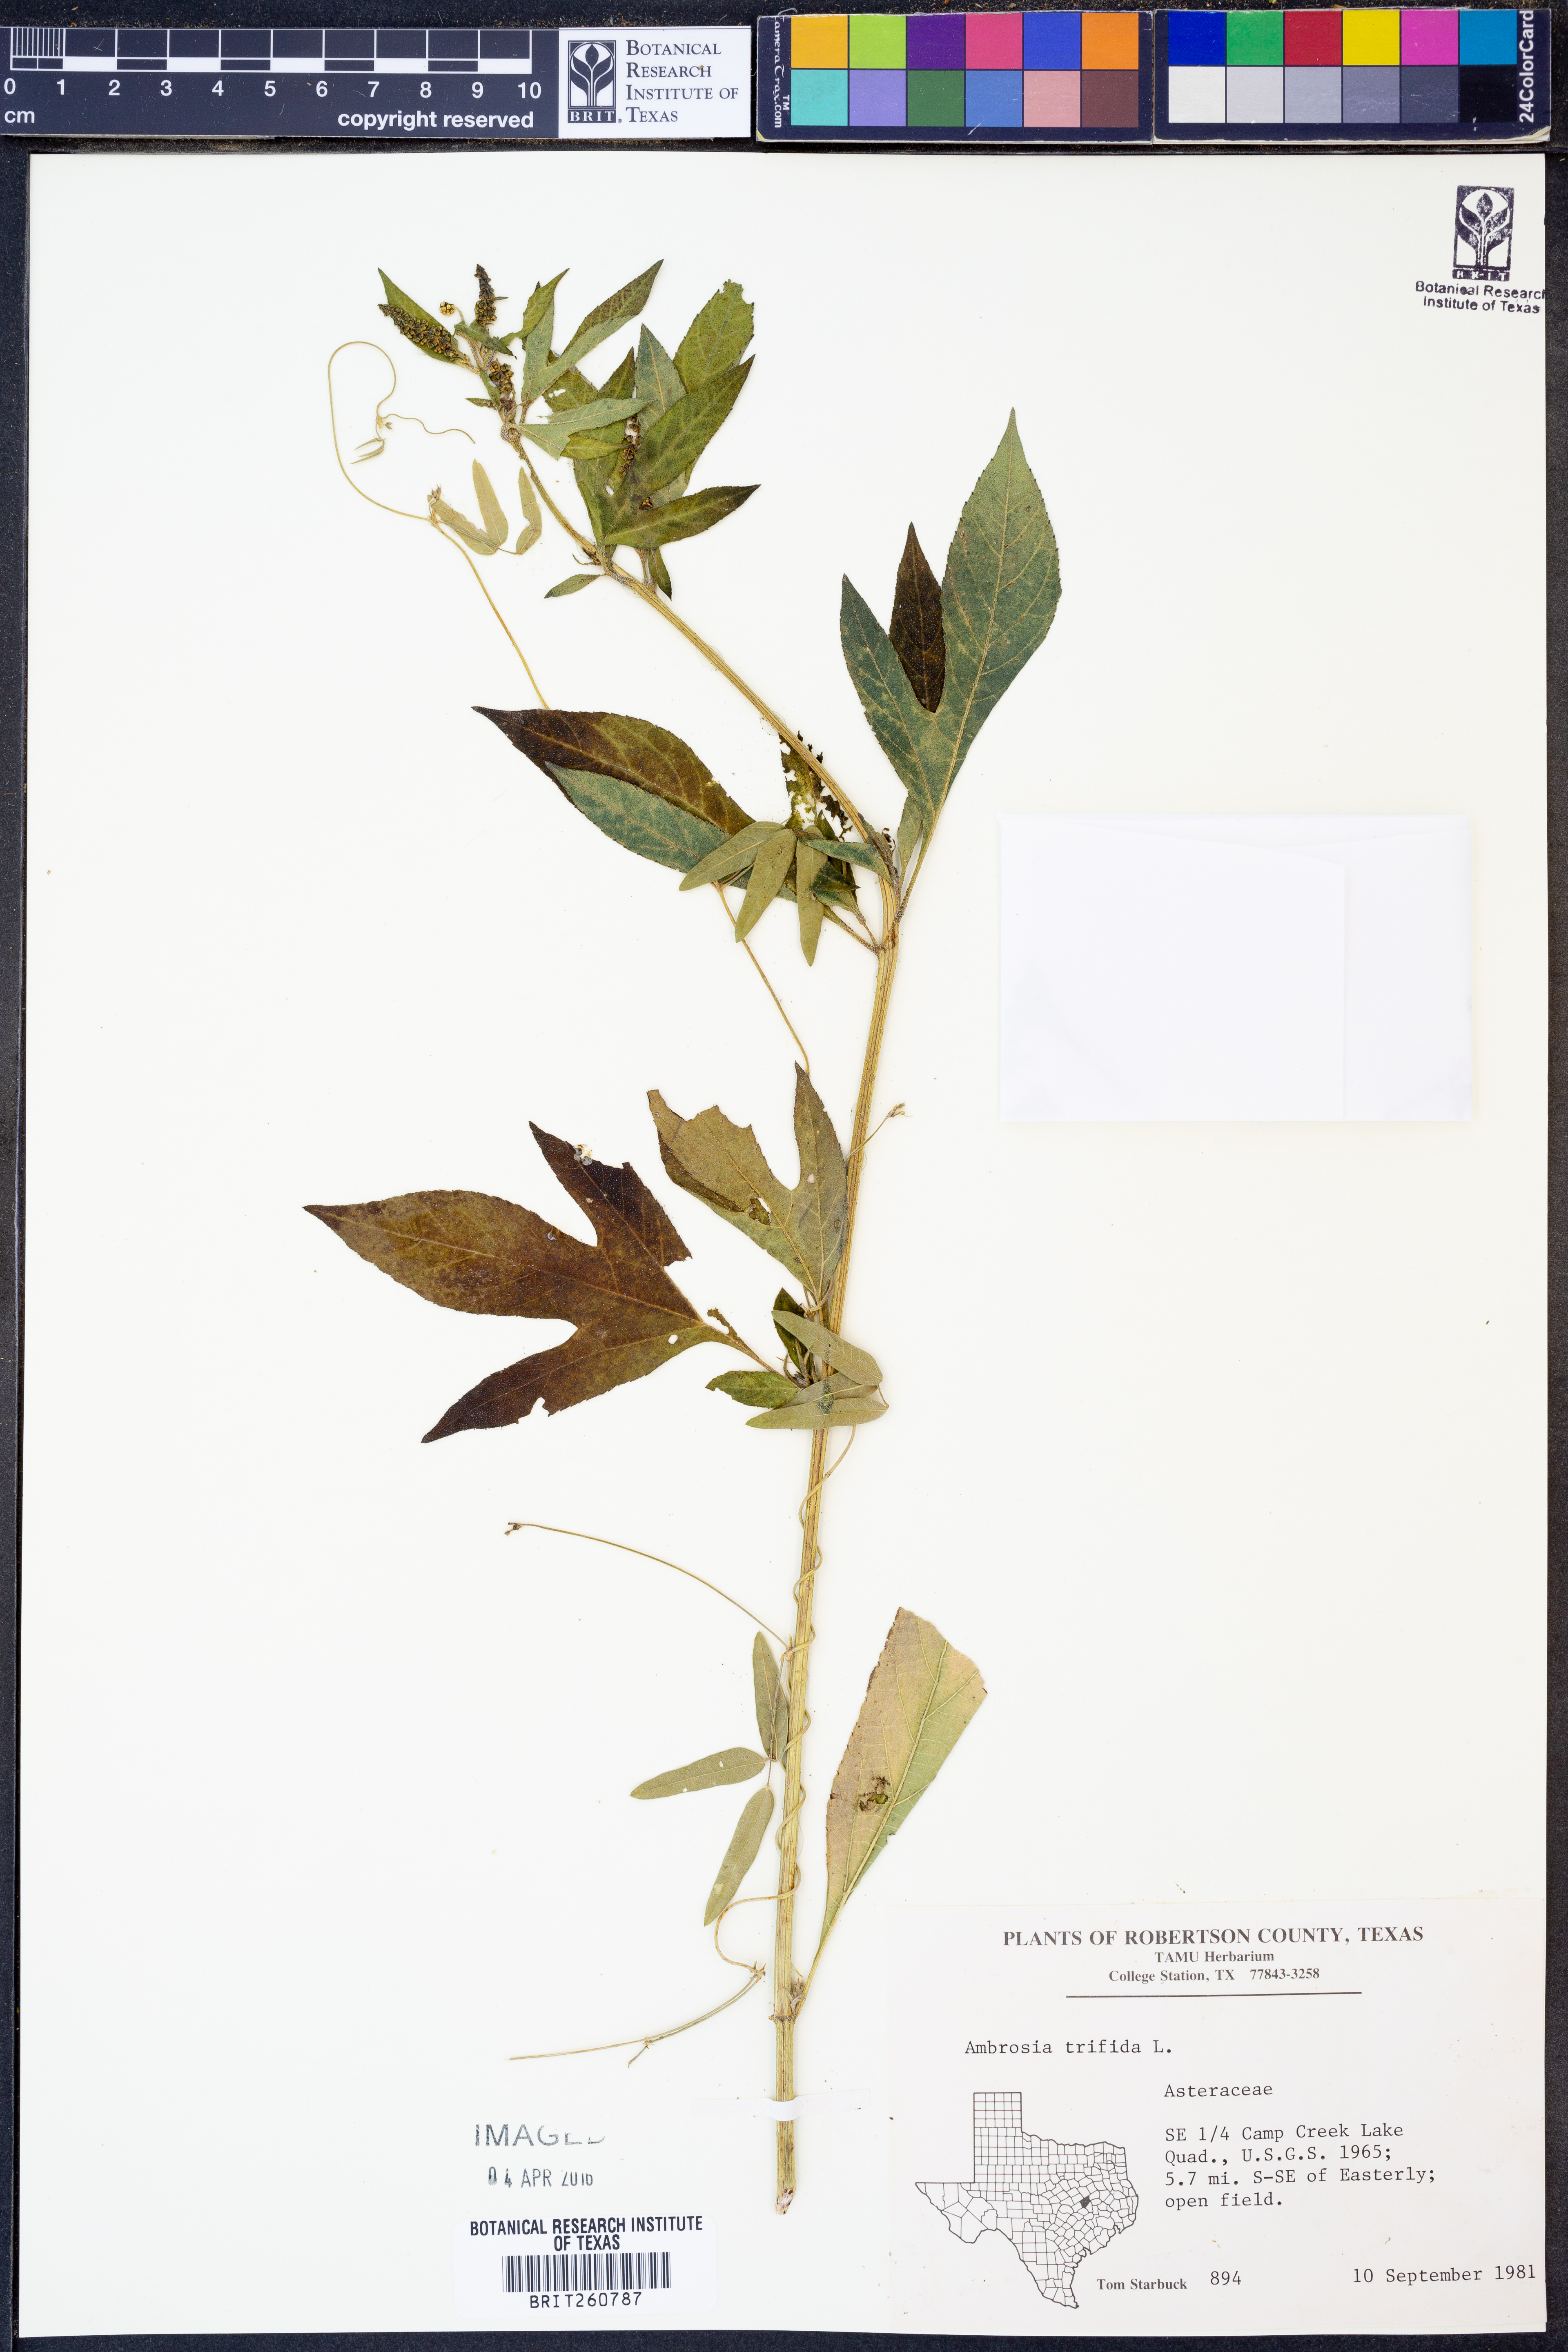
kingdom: Plantae
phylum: Tracheophyta
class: Magnoliopsida
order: Asterales
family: Asteraceae
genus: Ambrosia
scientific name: Ambrosia trifida
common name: Giant ragweed
